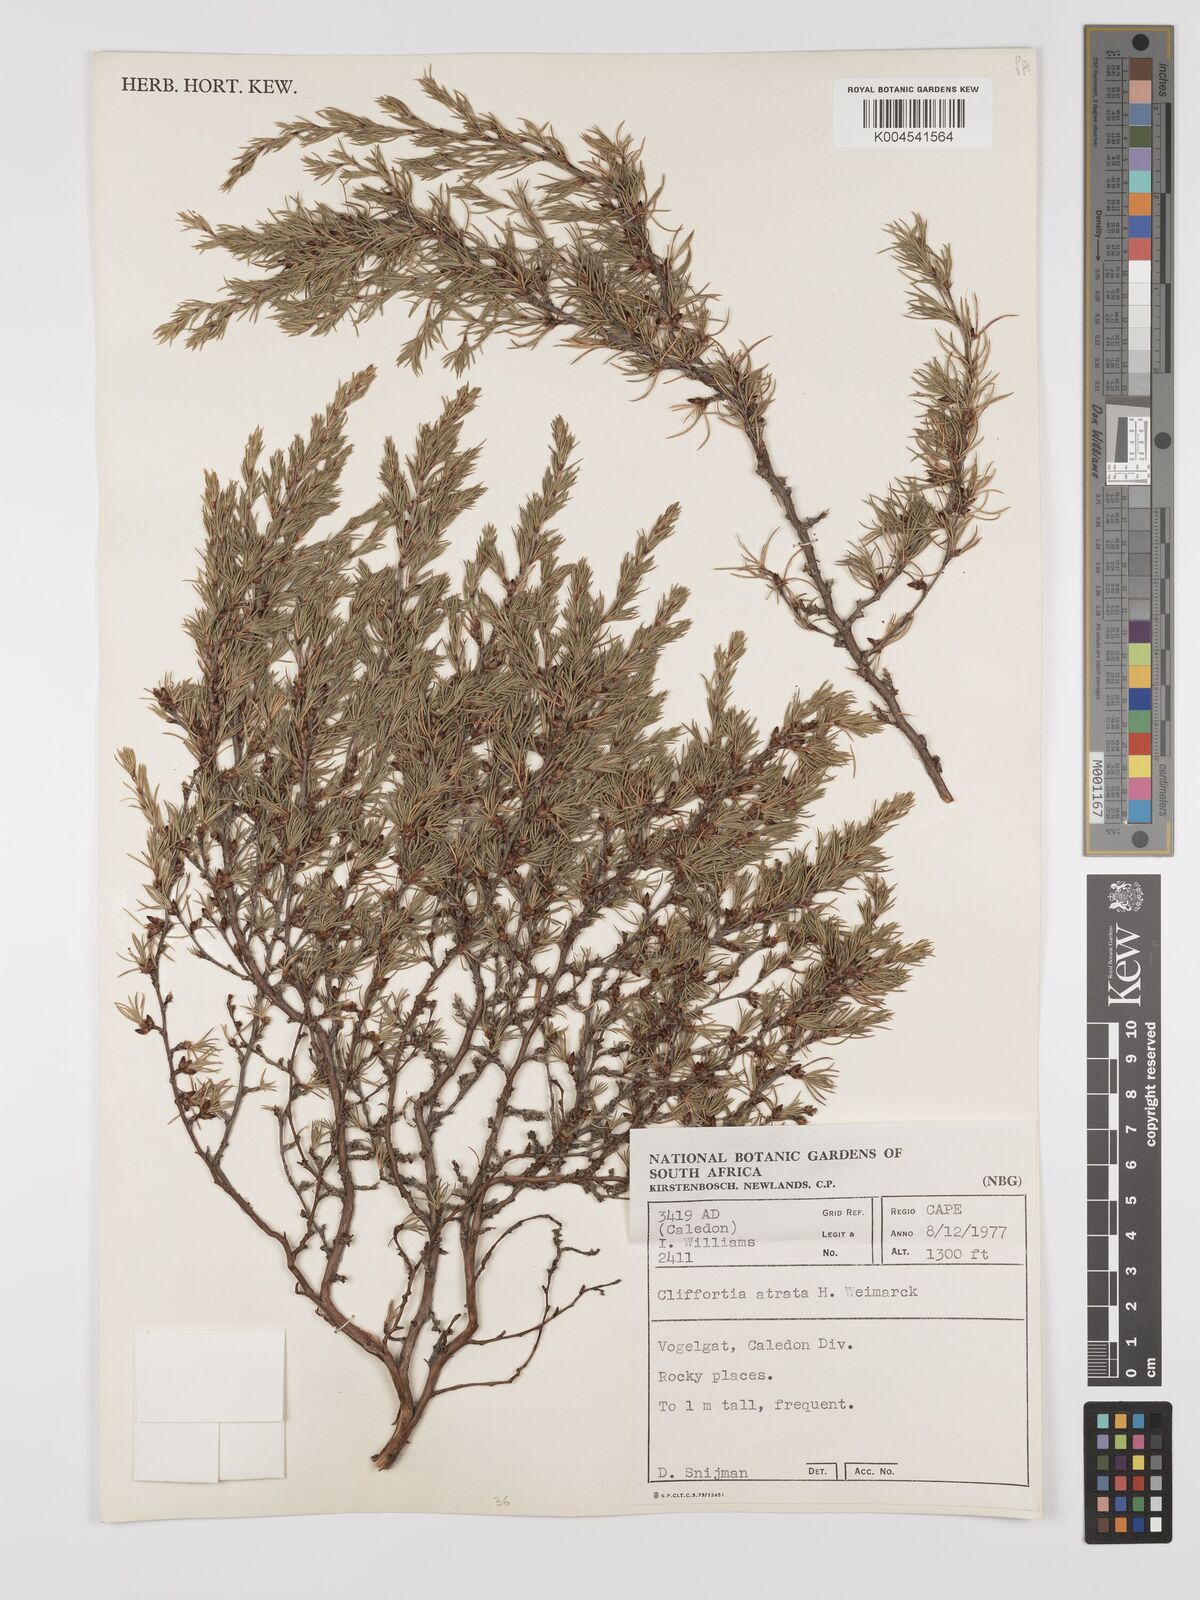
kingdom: Plantae
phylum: Tracheophyta
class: Magnoliopsida
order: Rosales
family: Rosaceae
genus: Cliffortia
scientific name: Cliffortia atrata
